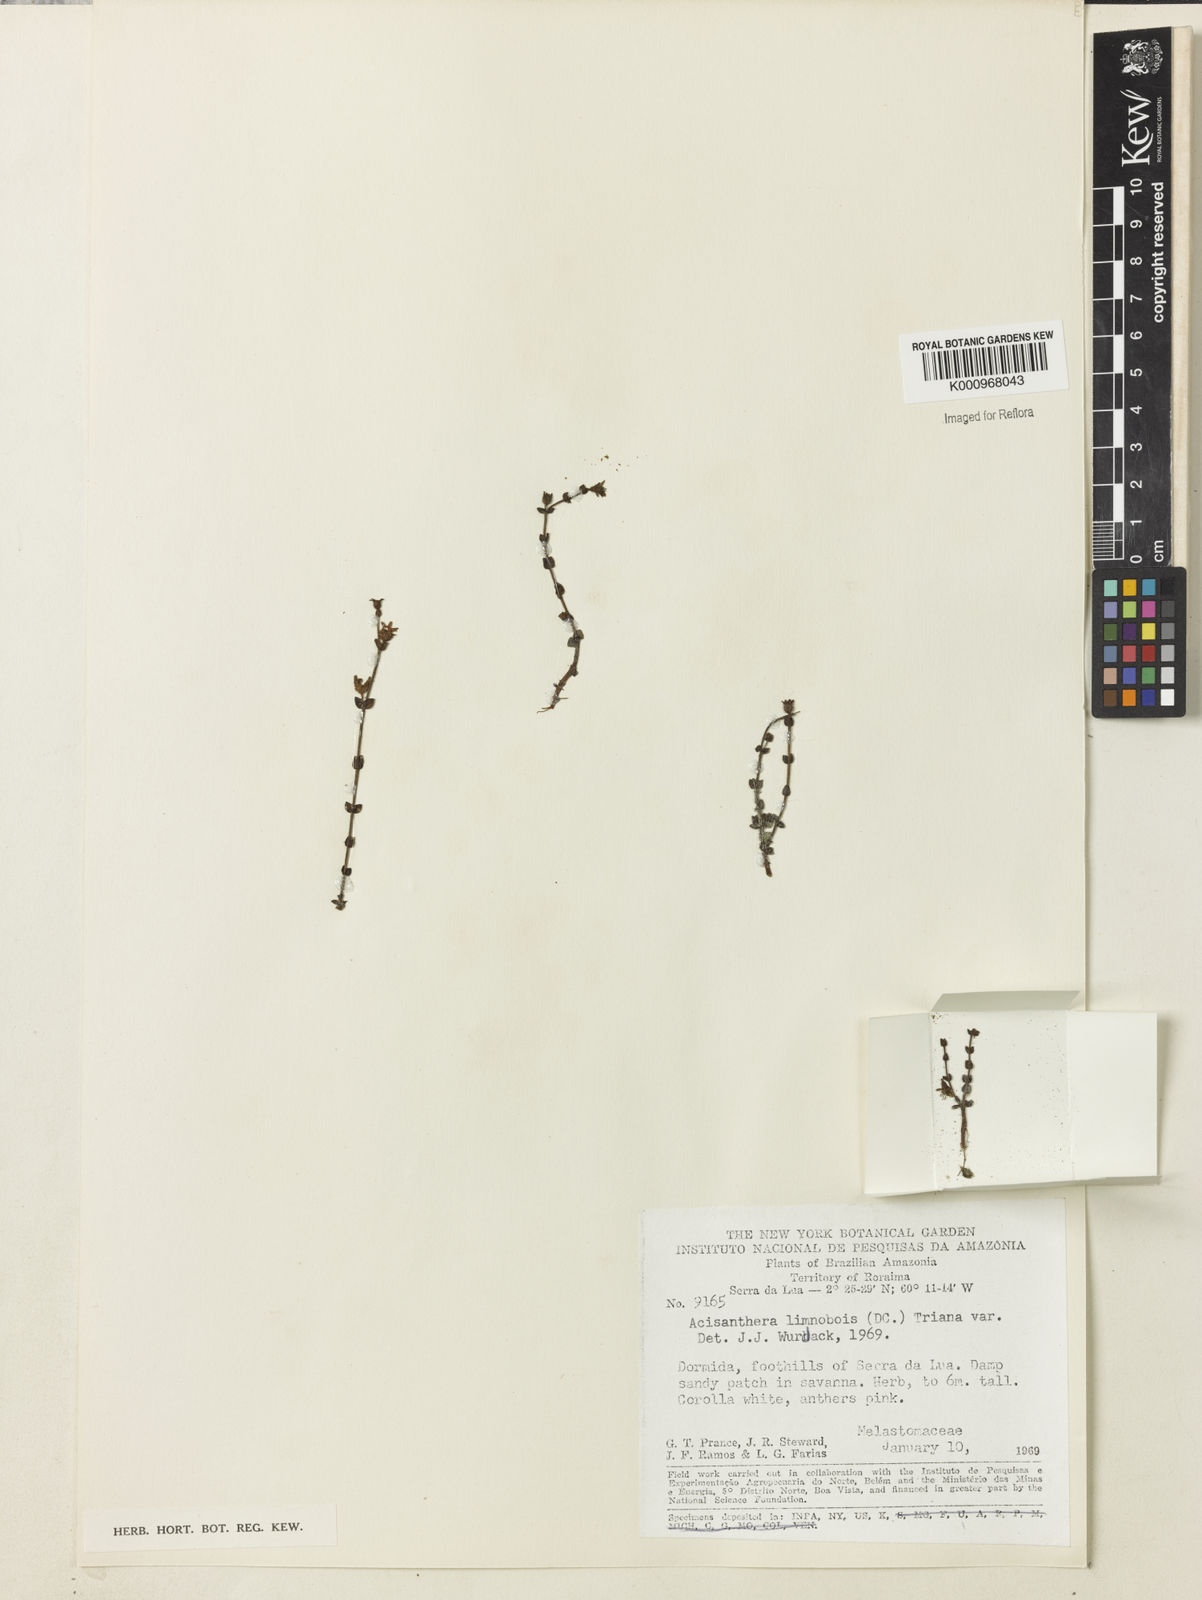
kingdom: Plantae
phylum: Tracheophyta
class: Magnoliopsida
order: Myrtales
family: Melastomataceae
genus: Acisanthera
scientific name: Acisanthera
